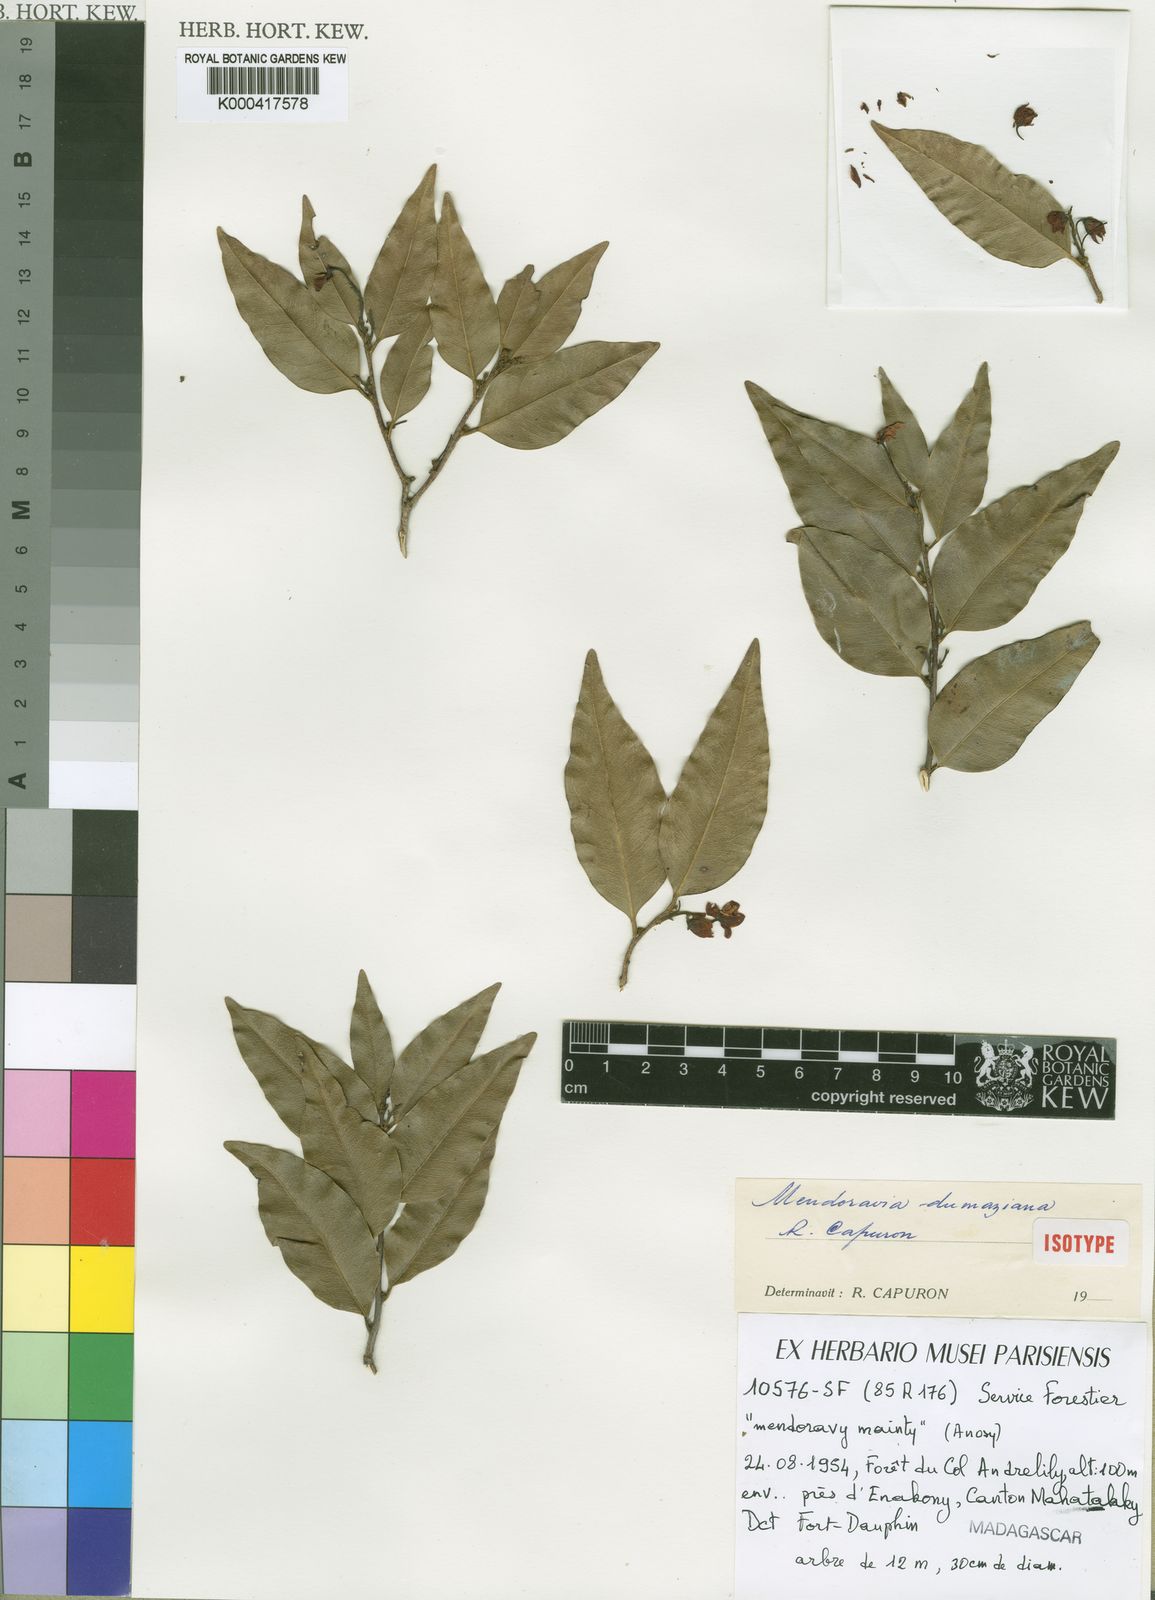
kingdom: Plantae
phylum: Tracheophyta
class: Magnoliopsida
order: Fabales
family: Fabaceae
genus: Mendoravia
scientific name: Mendoravia dumaziana
